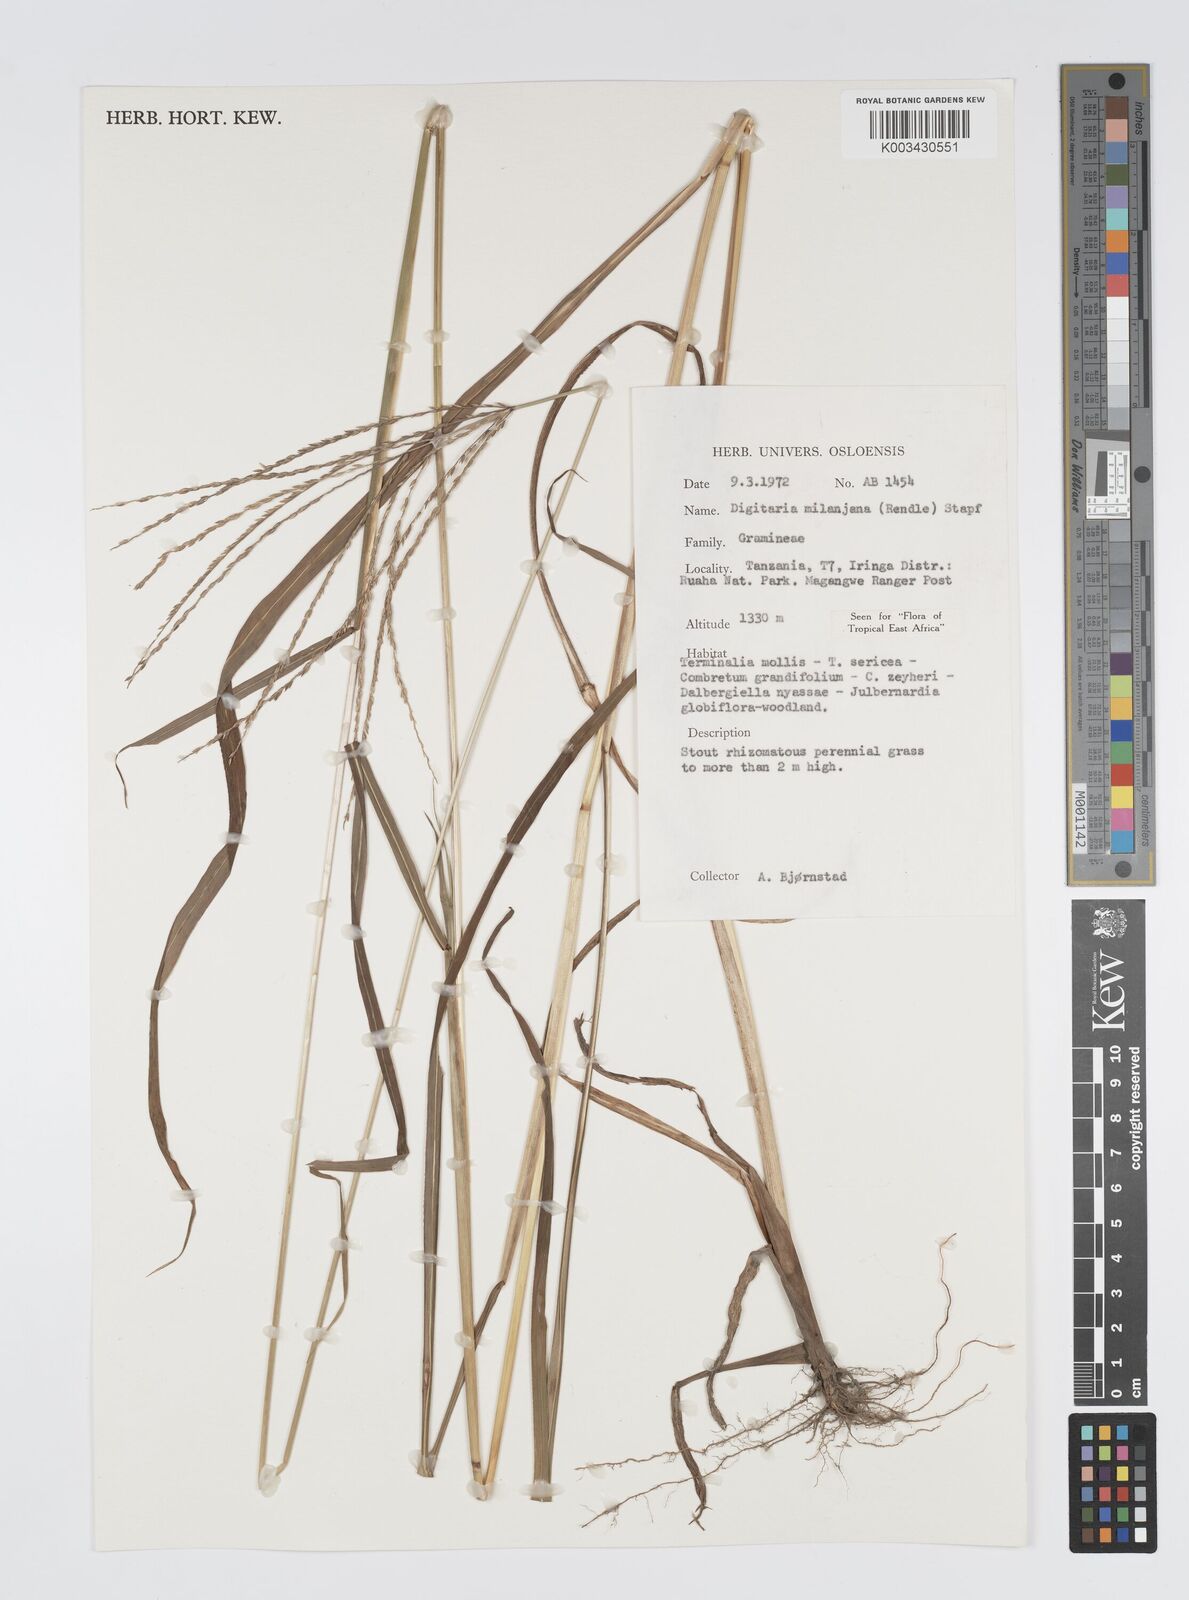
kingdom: Plantae
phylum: Tracheophyta
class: Liliopsida
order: Poales
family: Poaceae
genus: Digitaria
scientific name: Digitaria milanjiana
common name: Madagascar crabgrass
